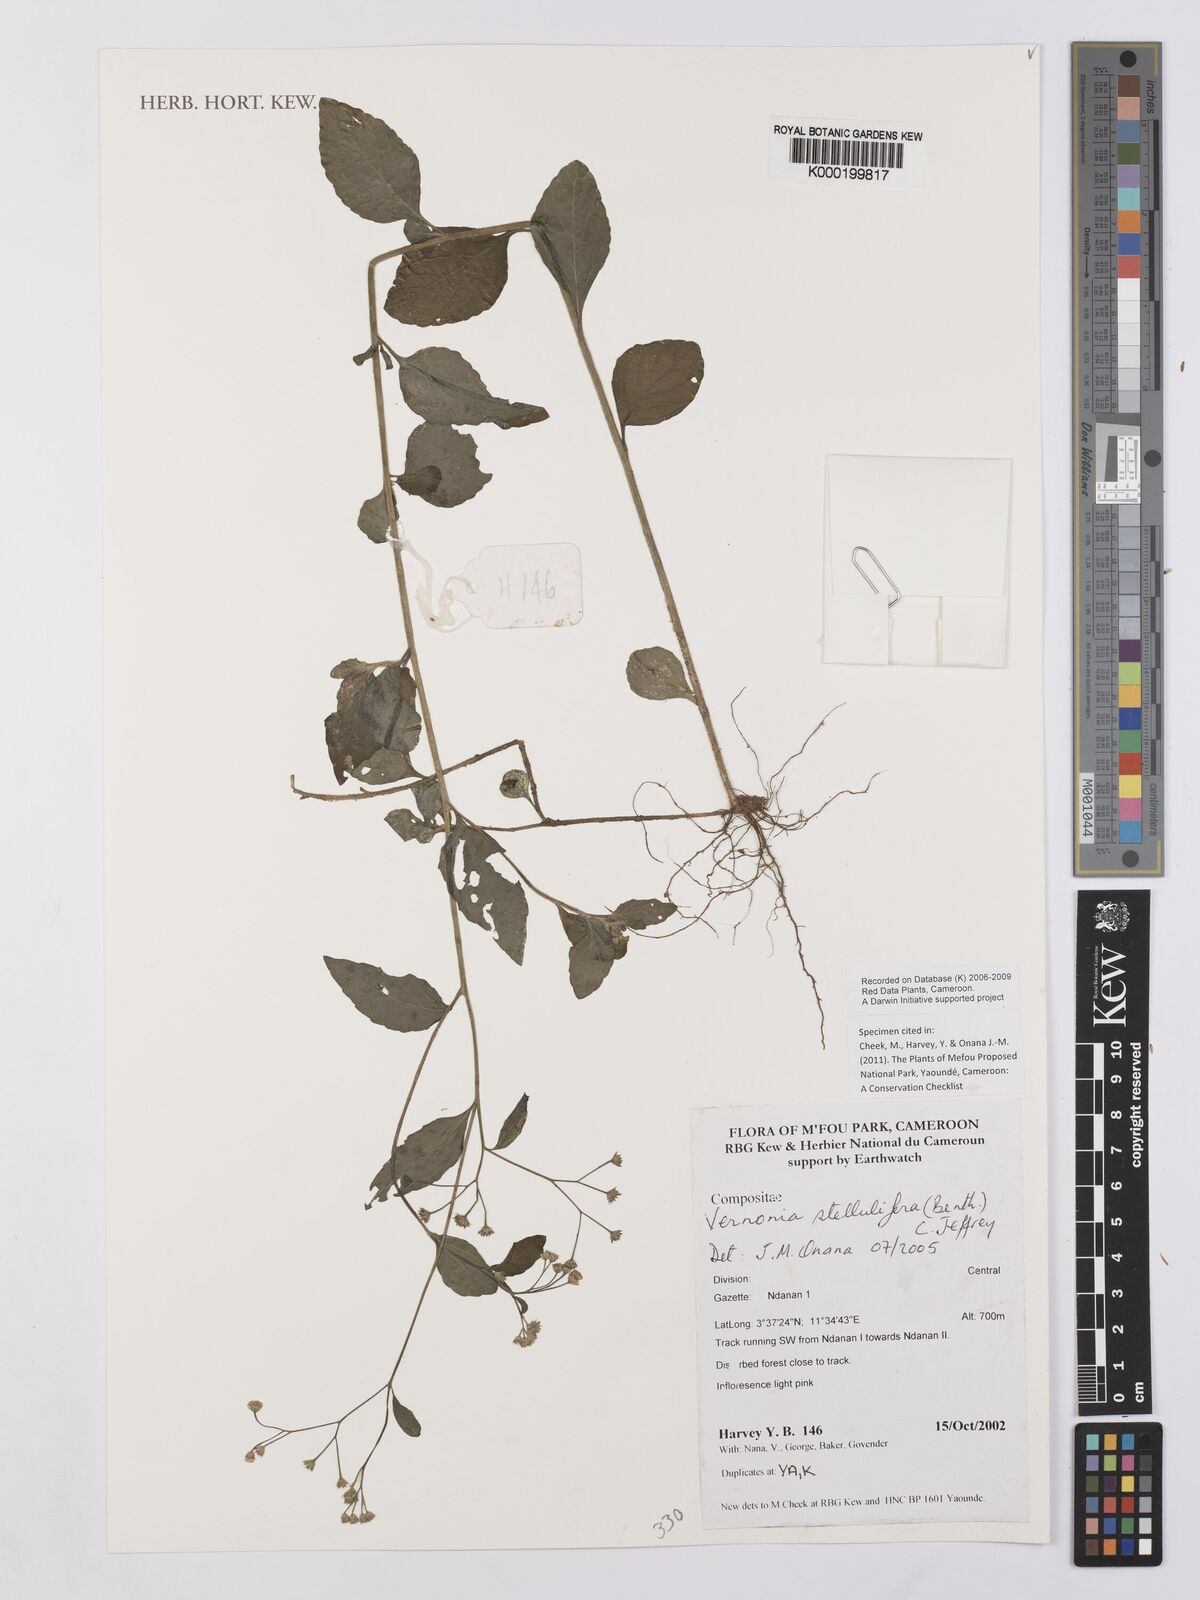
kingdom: Plantae
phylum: Tracheophyta
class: Magnoliopsida
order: Asterales
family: Asteraceae
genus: Cyanthillium
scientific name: Cyanthillium stelluliferum
